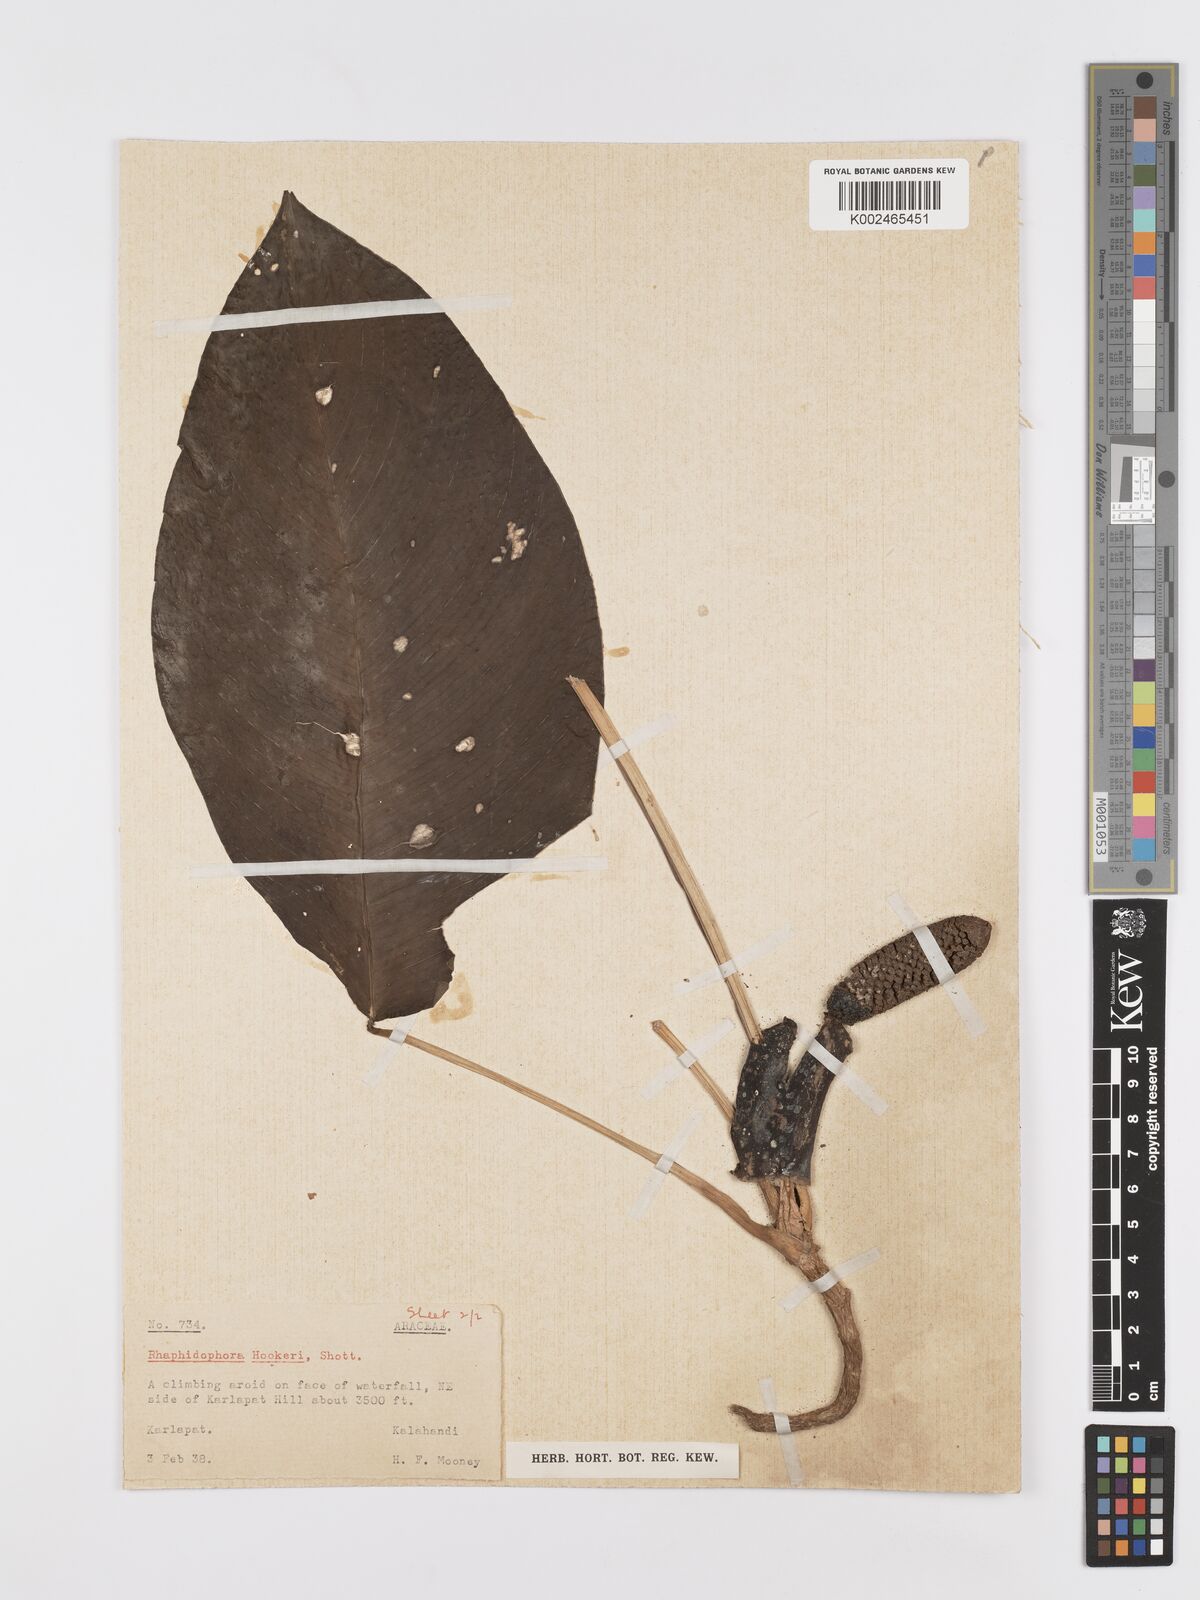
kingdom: Plantae
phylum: Tracheophyta
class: Liliopsida
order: Alismatales
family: Araceae
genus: Rhaphidophora
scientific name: Rhaphidophora hookeri
